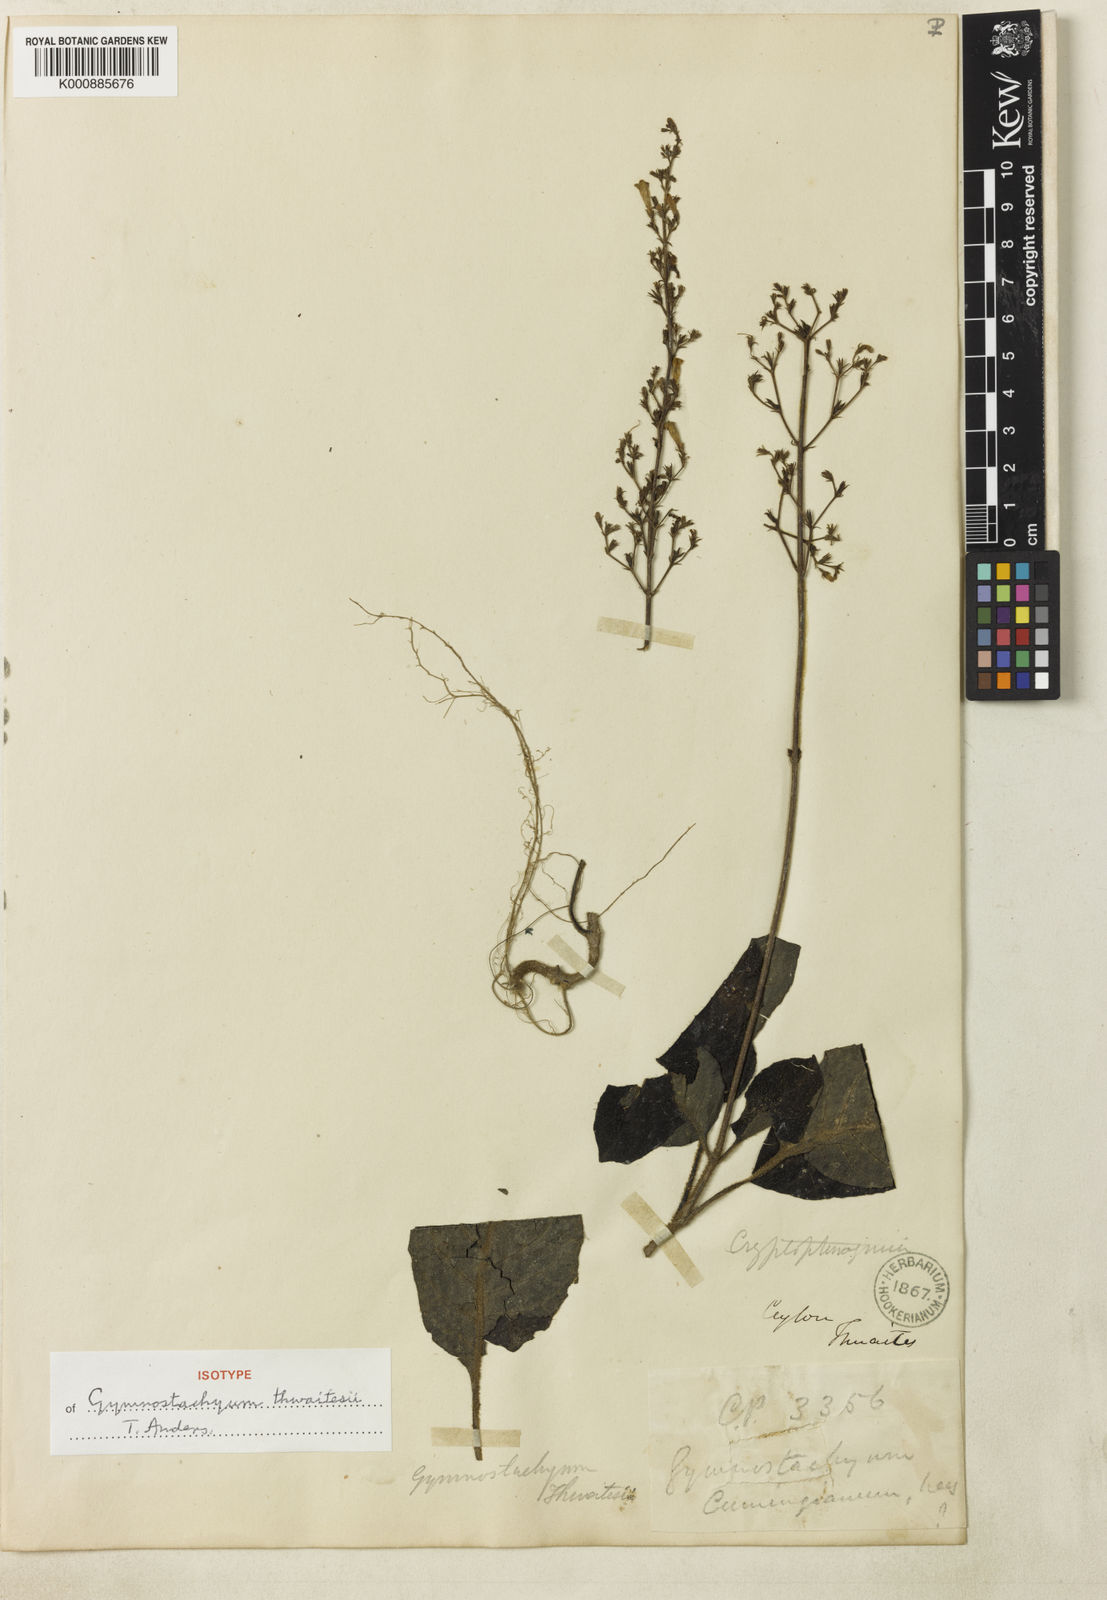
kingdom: Plantae
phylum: Tracheophyta
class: Magnoliopsida
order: Lamiales
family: Acanthaceae
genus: Gymnostachyum
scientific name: Gymnostachyum thwaitesii
